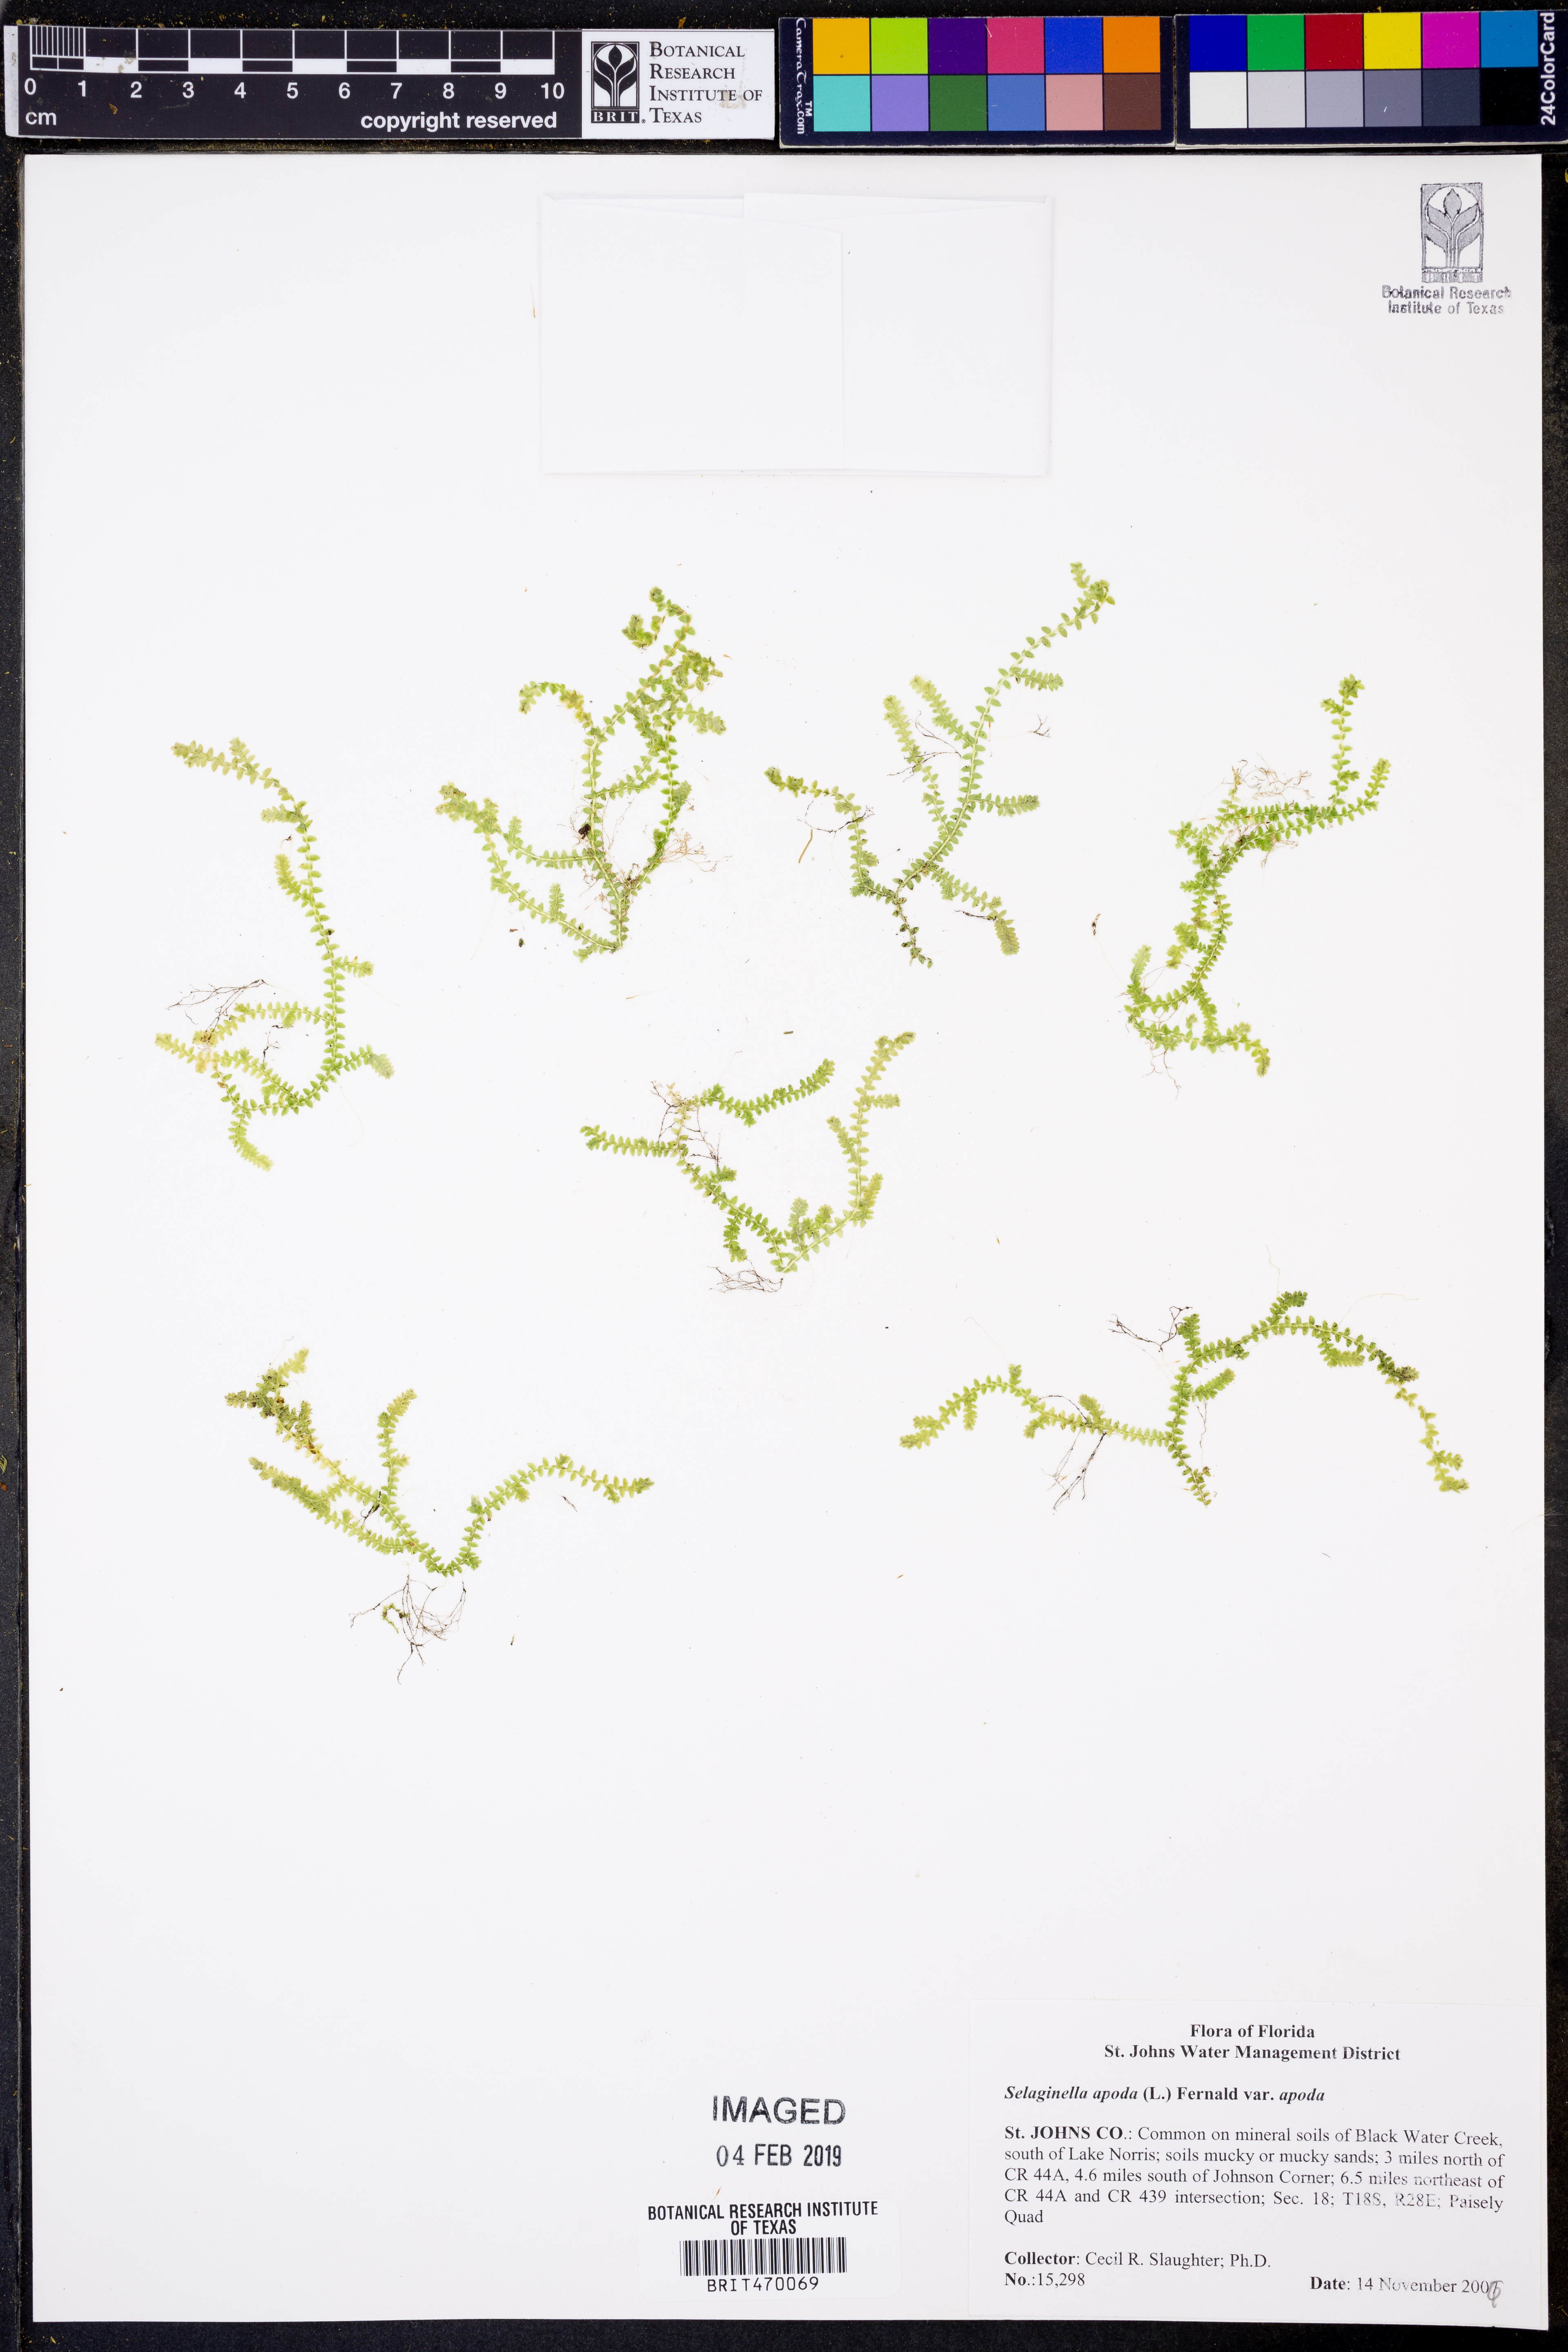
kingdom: Plantae
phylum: Tracheophyta
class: Lycopodiopsida
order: Selaginellales
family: Selaginellaceae
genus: Selaginella
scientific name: Selaginella
